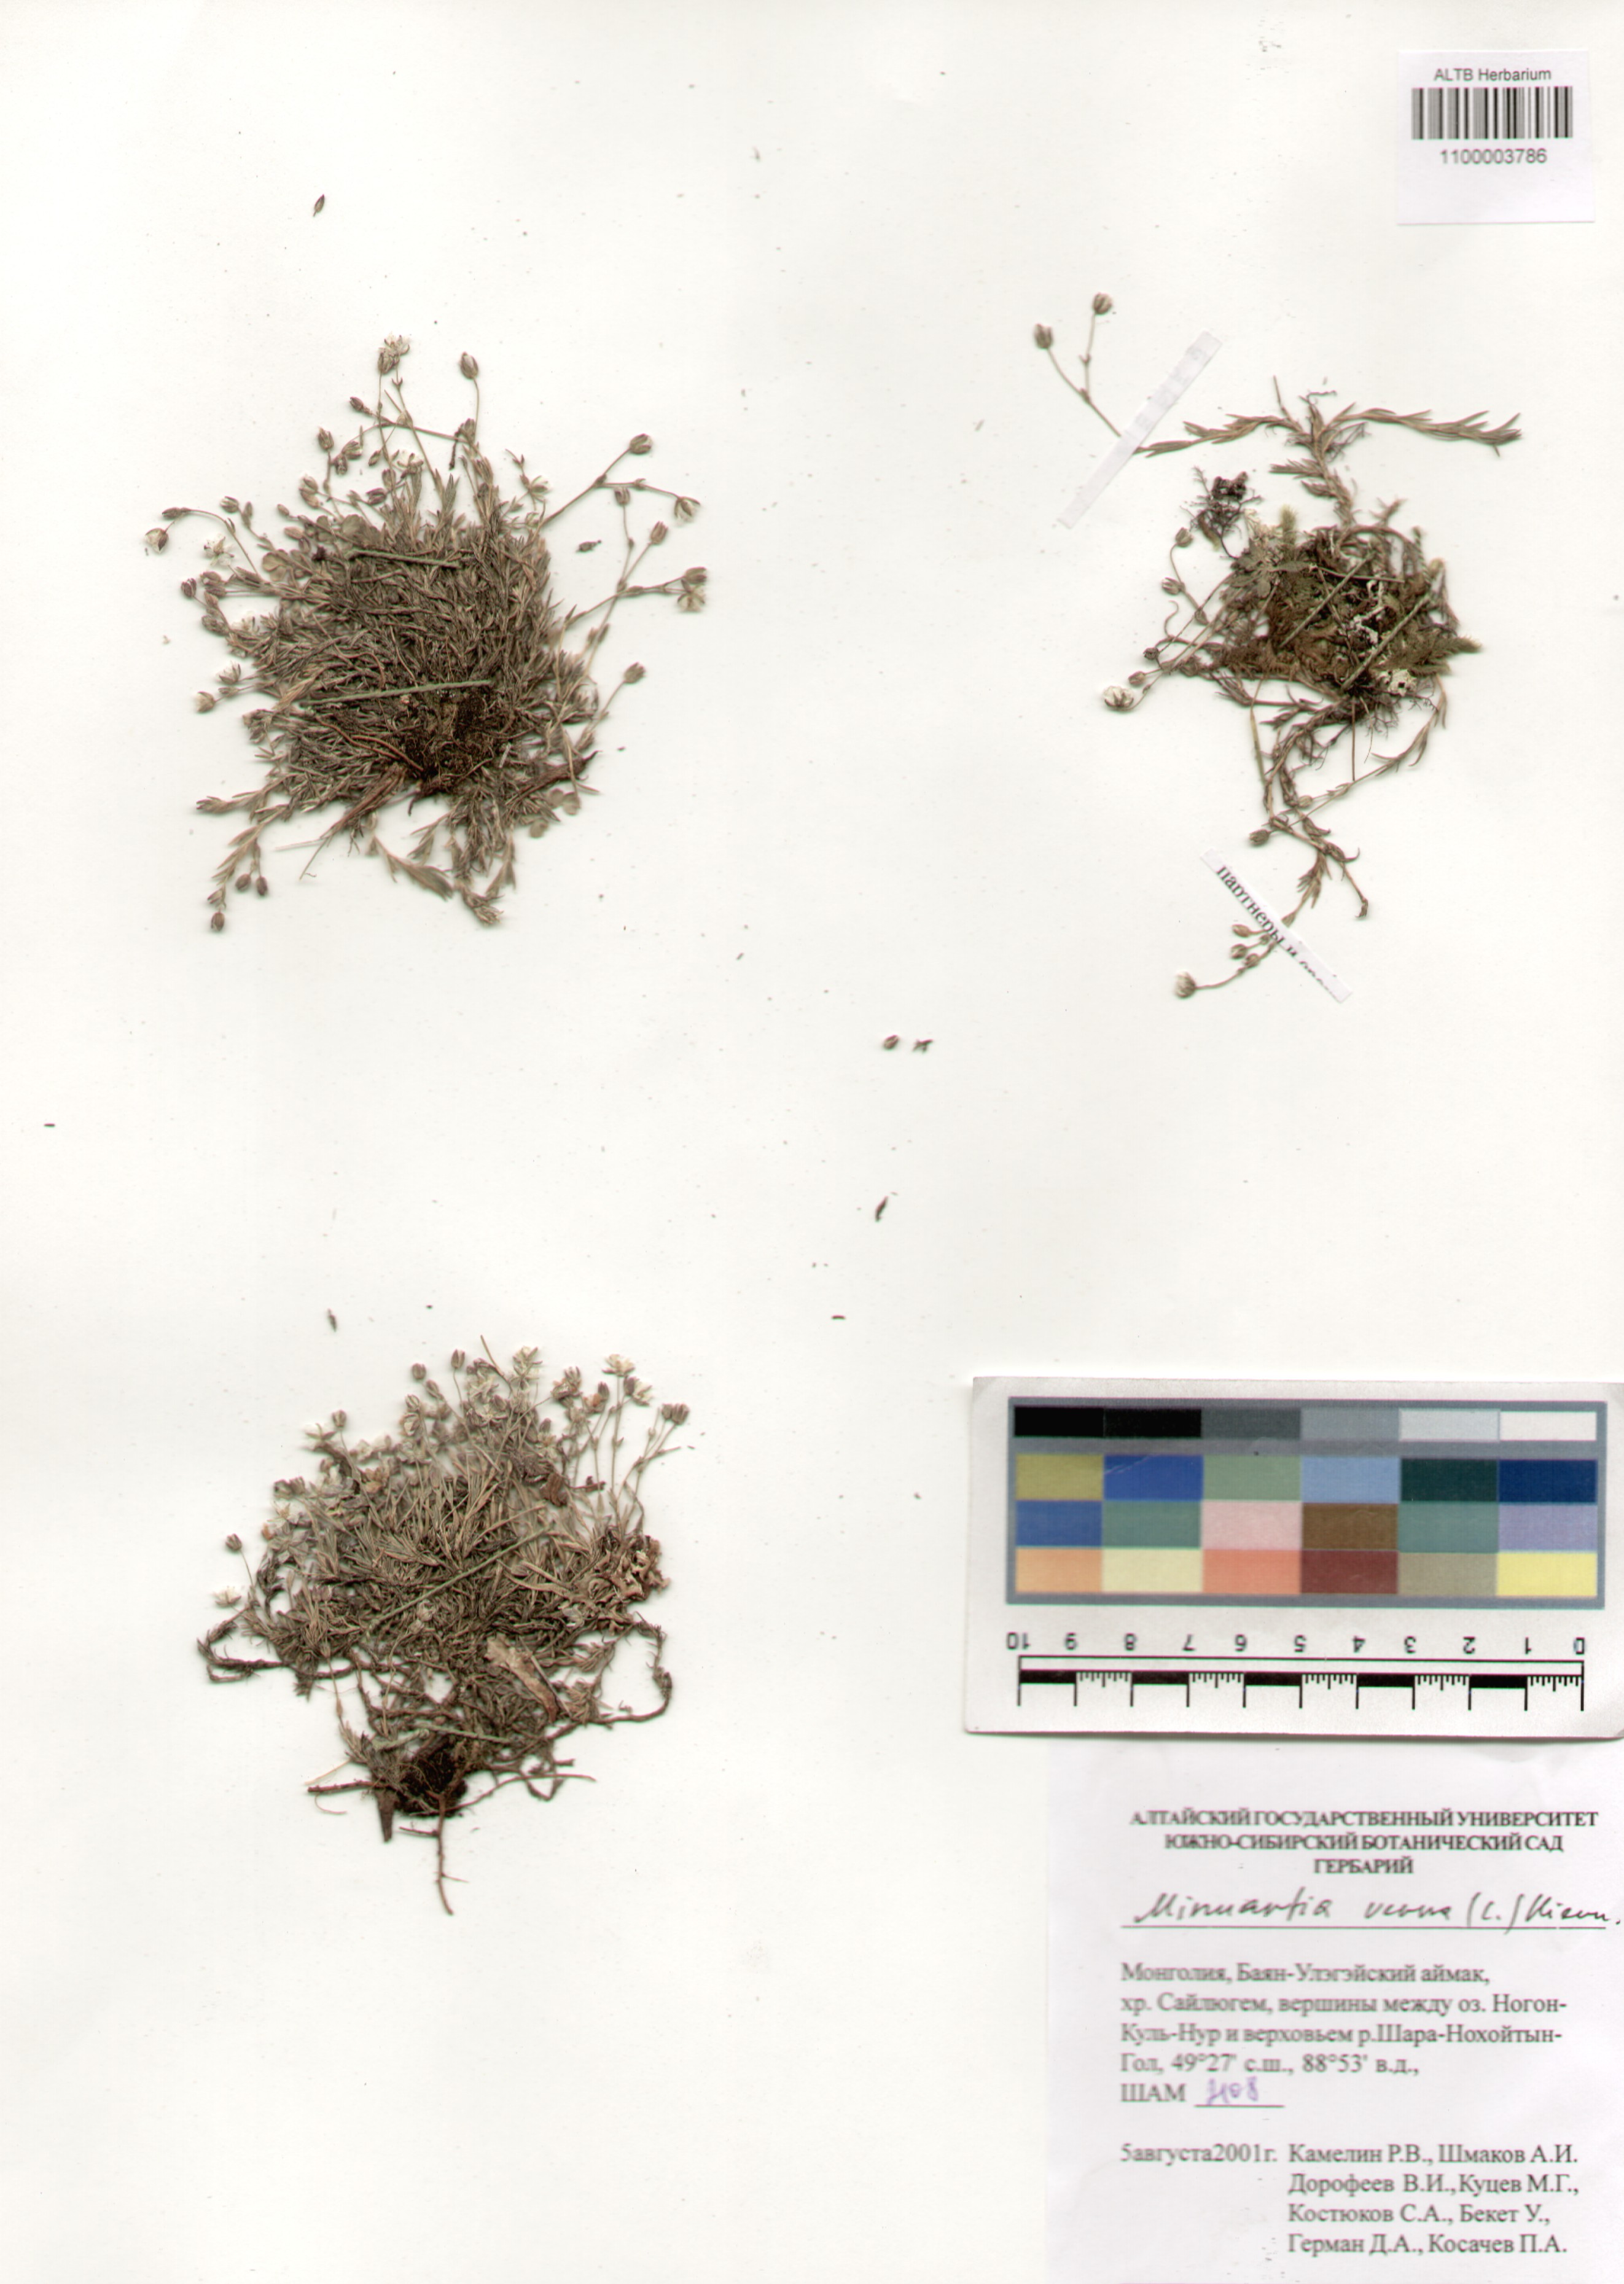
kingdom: Plantae
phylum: Tracheophyta
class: Magnoliopsida
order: Caryophyllales
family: Caryophyllaceae
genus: Sabulina
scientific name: Sabulina verna
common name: Spring sandwort
